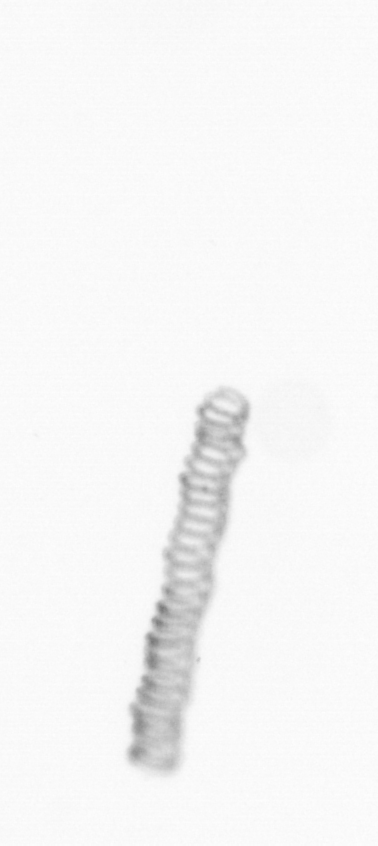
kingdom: Chromista
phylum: Ochrophyta
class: Bacillariophyceae
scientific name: Bacillariophyceae
